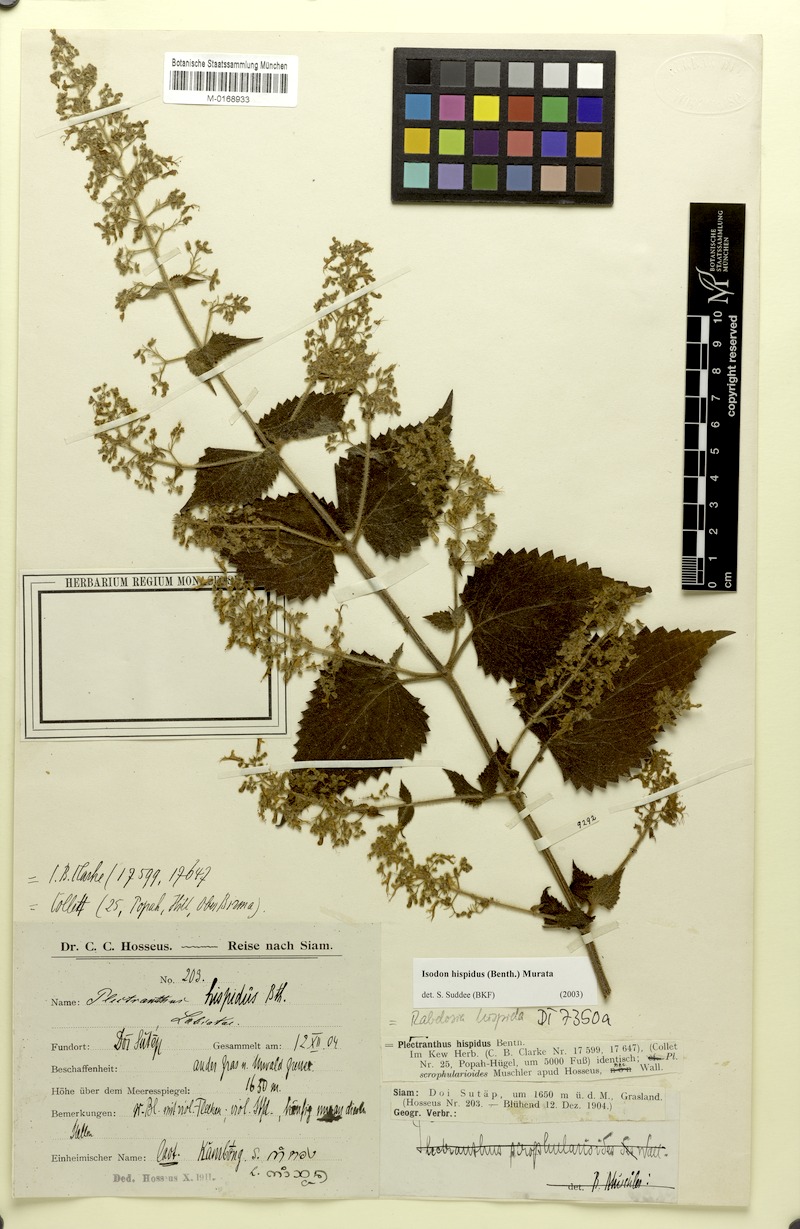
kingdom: Plantae
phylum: Tracheophyta
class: Magnoliopsida
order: Lamiales
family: Lamiaceae
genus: Isodon
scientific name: Isodon hispidus
